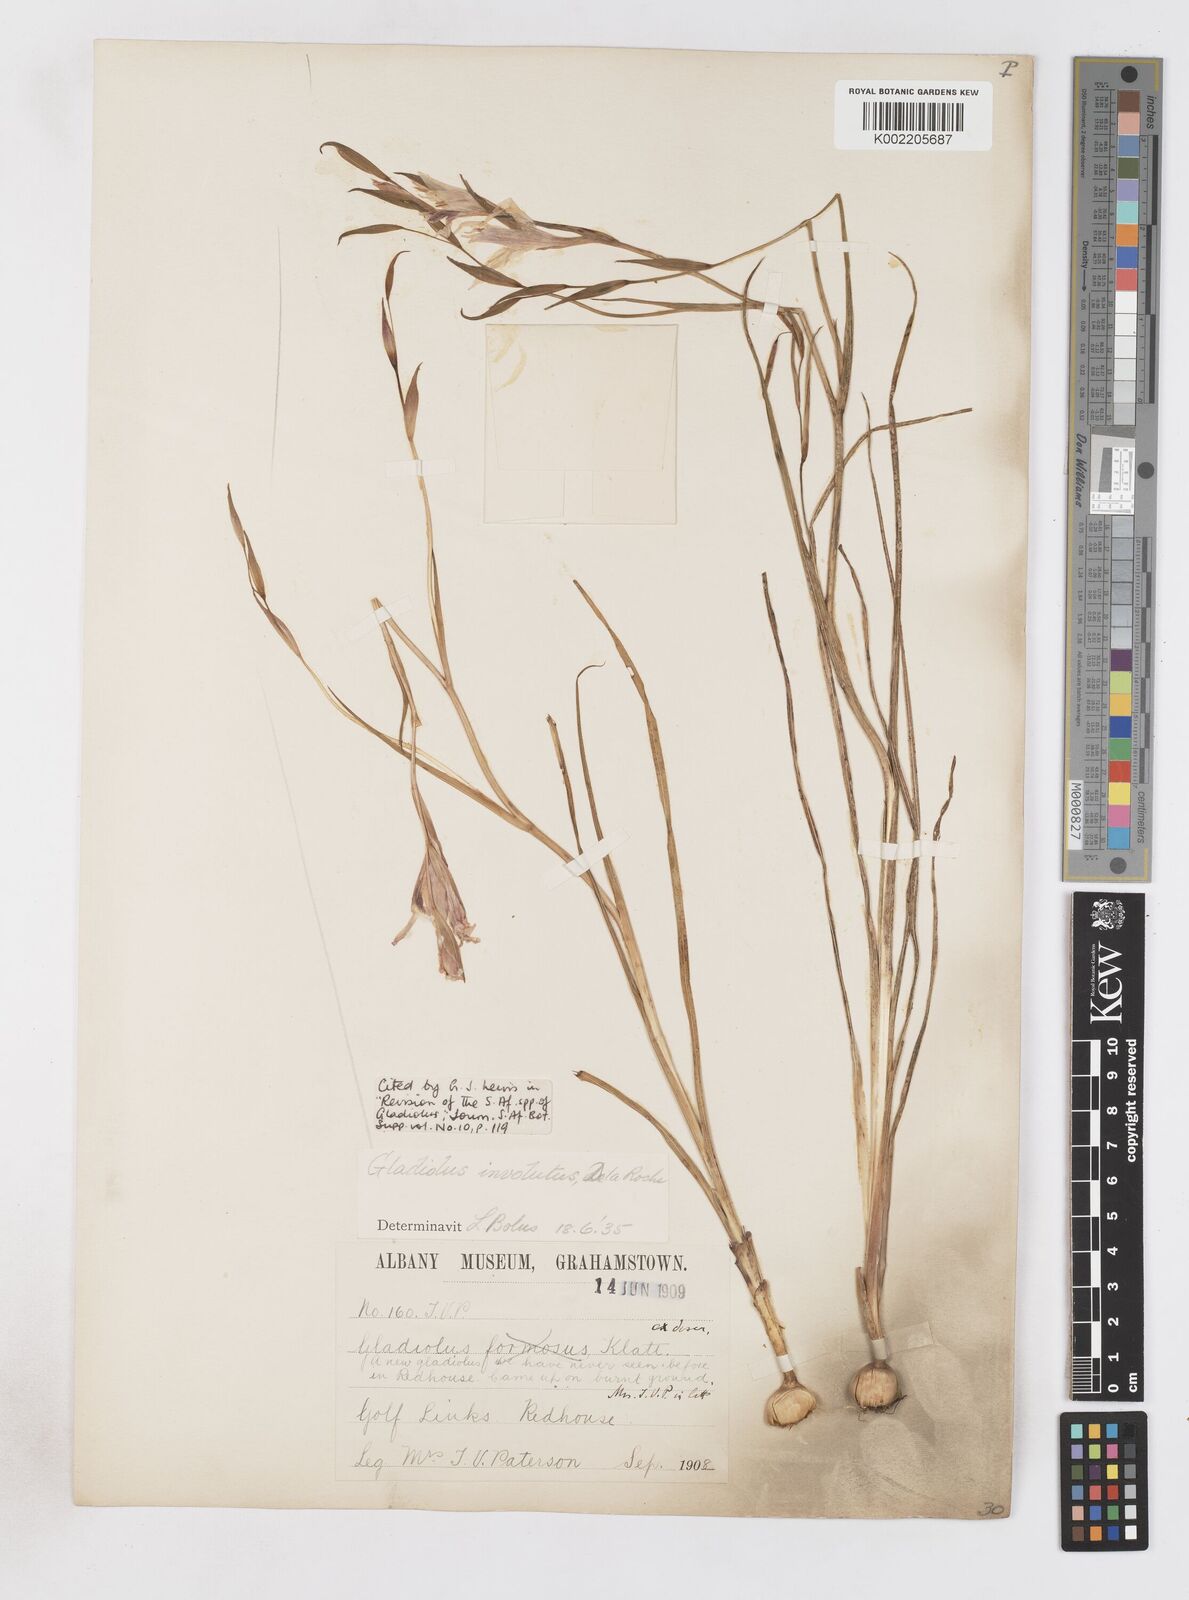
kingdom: Plantae
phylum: Tracheophyta
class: Liliopsida
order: Asparagales
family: Iridaceae
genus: Gladiolus
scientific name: Gladiolus involutus
